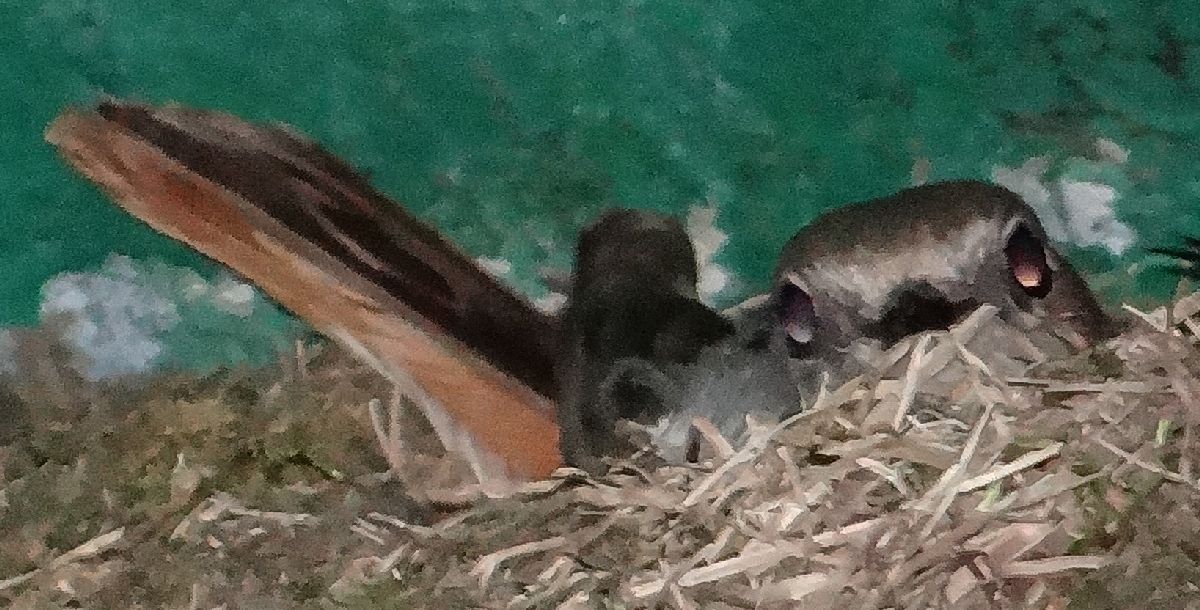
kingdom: Animalia
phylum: Chordata
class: Aves
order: Passeriformes
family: Muscicapidae
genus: Phoenicurus
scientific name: Phoenicurus ochruros
